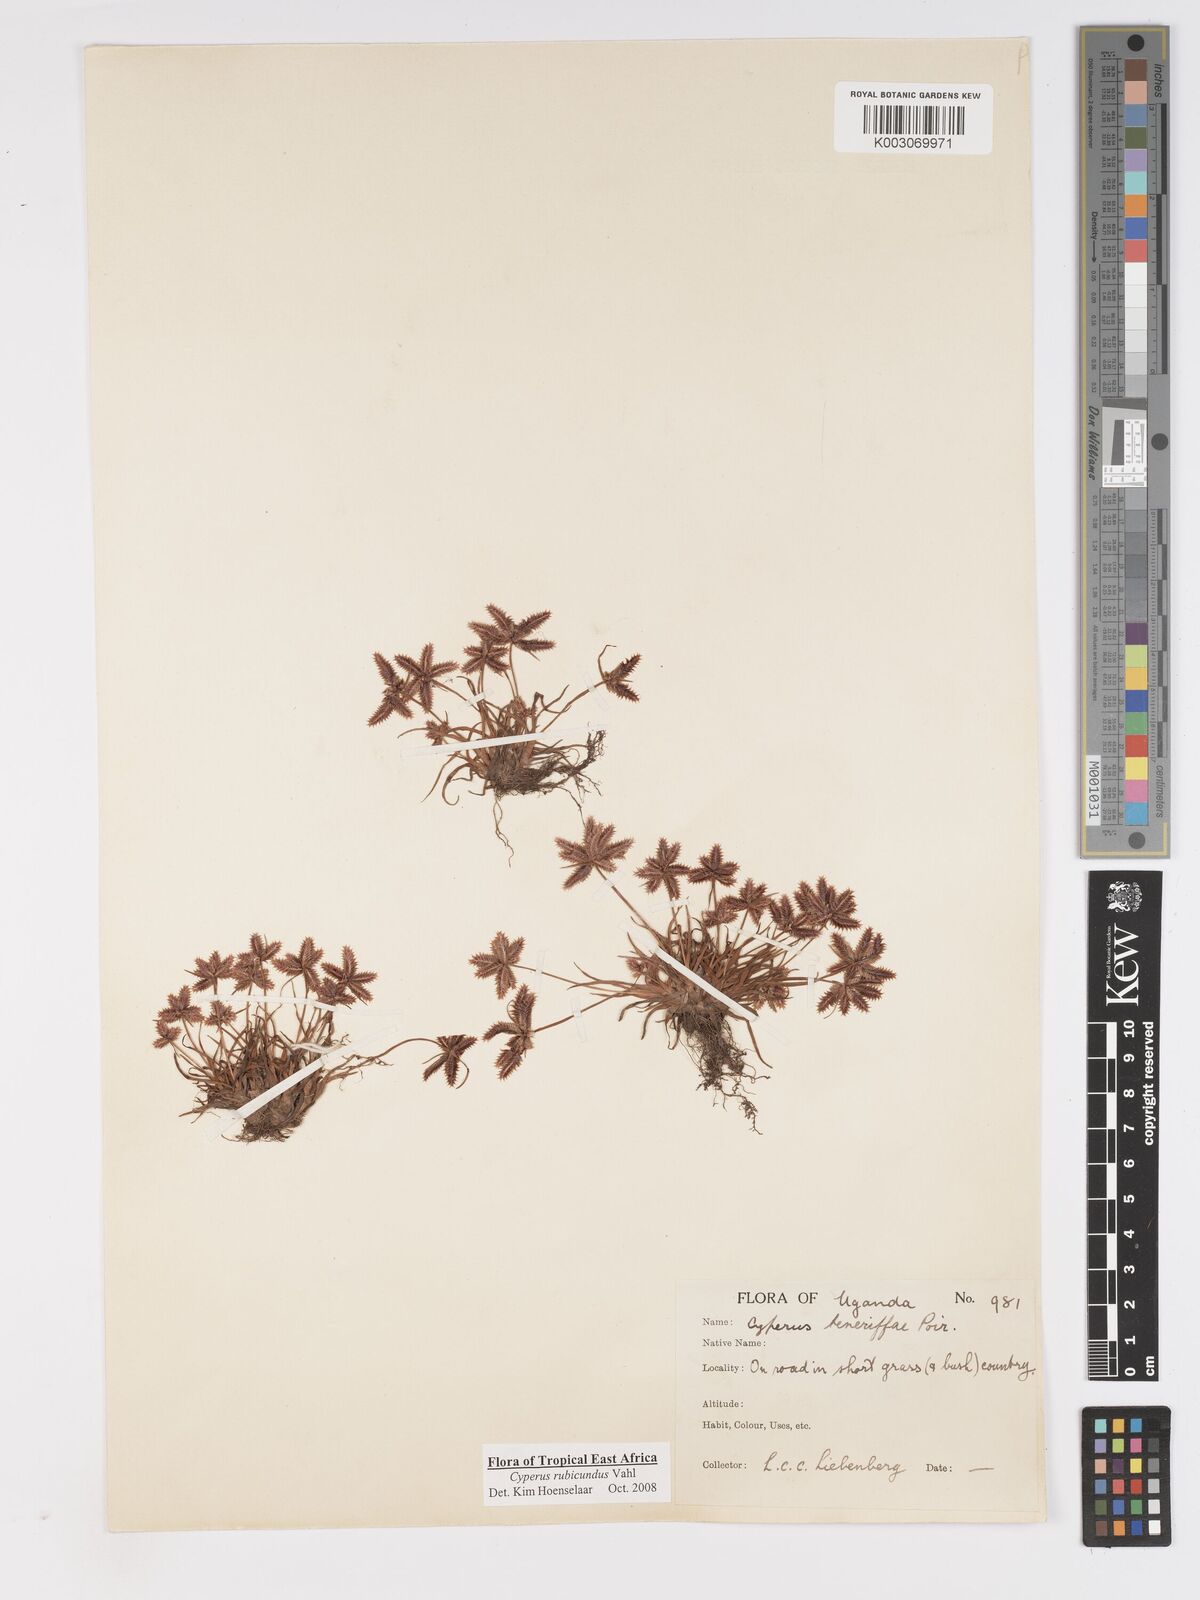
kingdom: Plantae
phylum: Tracheophyta
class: Liliopsida
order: Poales
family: Cyperaceae
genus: Cyperus
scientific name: Cyperus rubicundus
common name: Coco-grass
